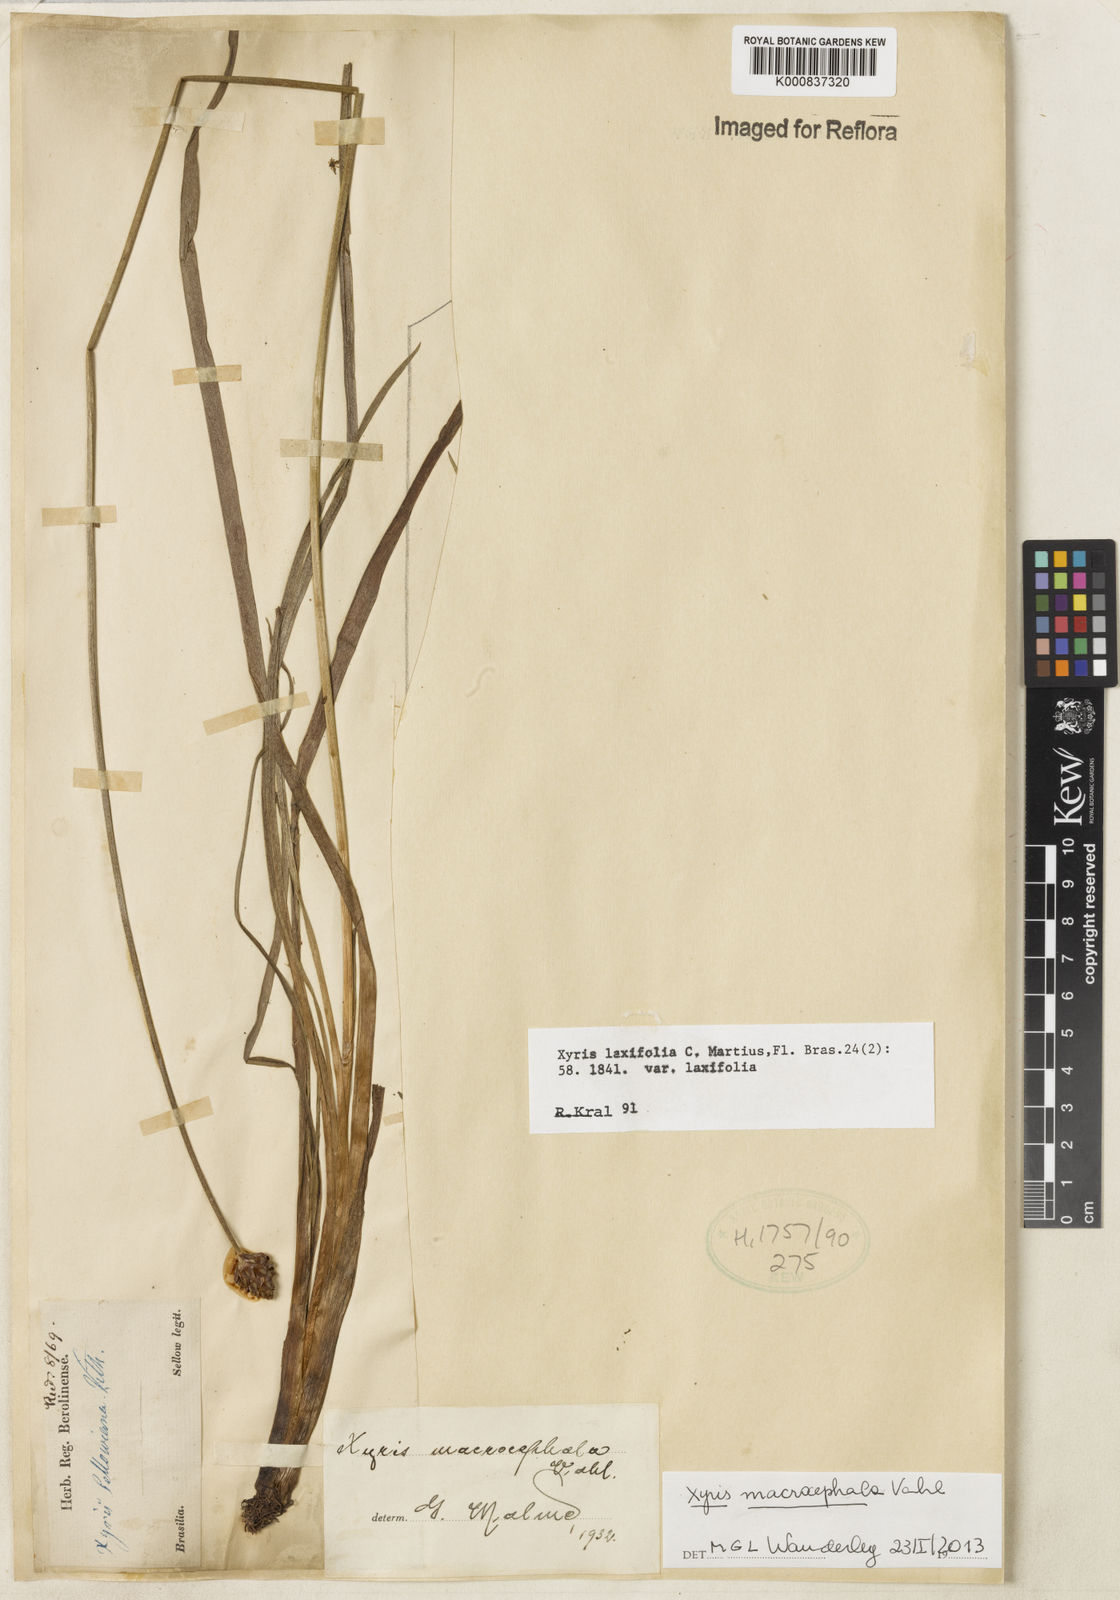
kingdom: Plantae
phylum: Tracheophyta
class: Liliopsida
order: Poales
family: Xyridaceae
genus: Xyris
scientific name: Xyris jupicai
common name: Richard's yelloweyed grass
